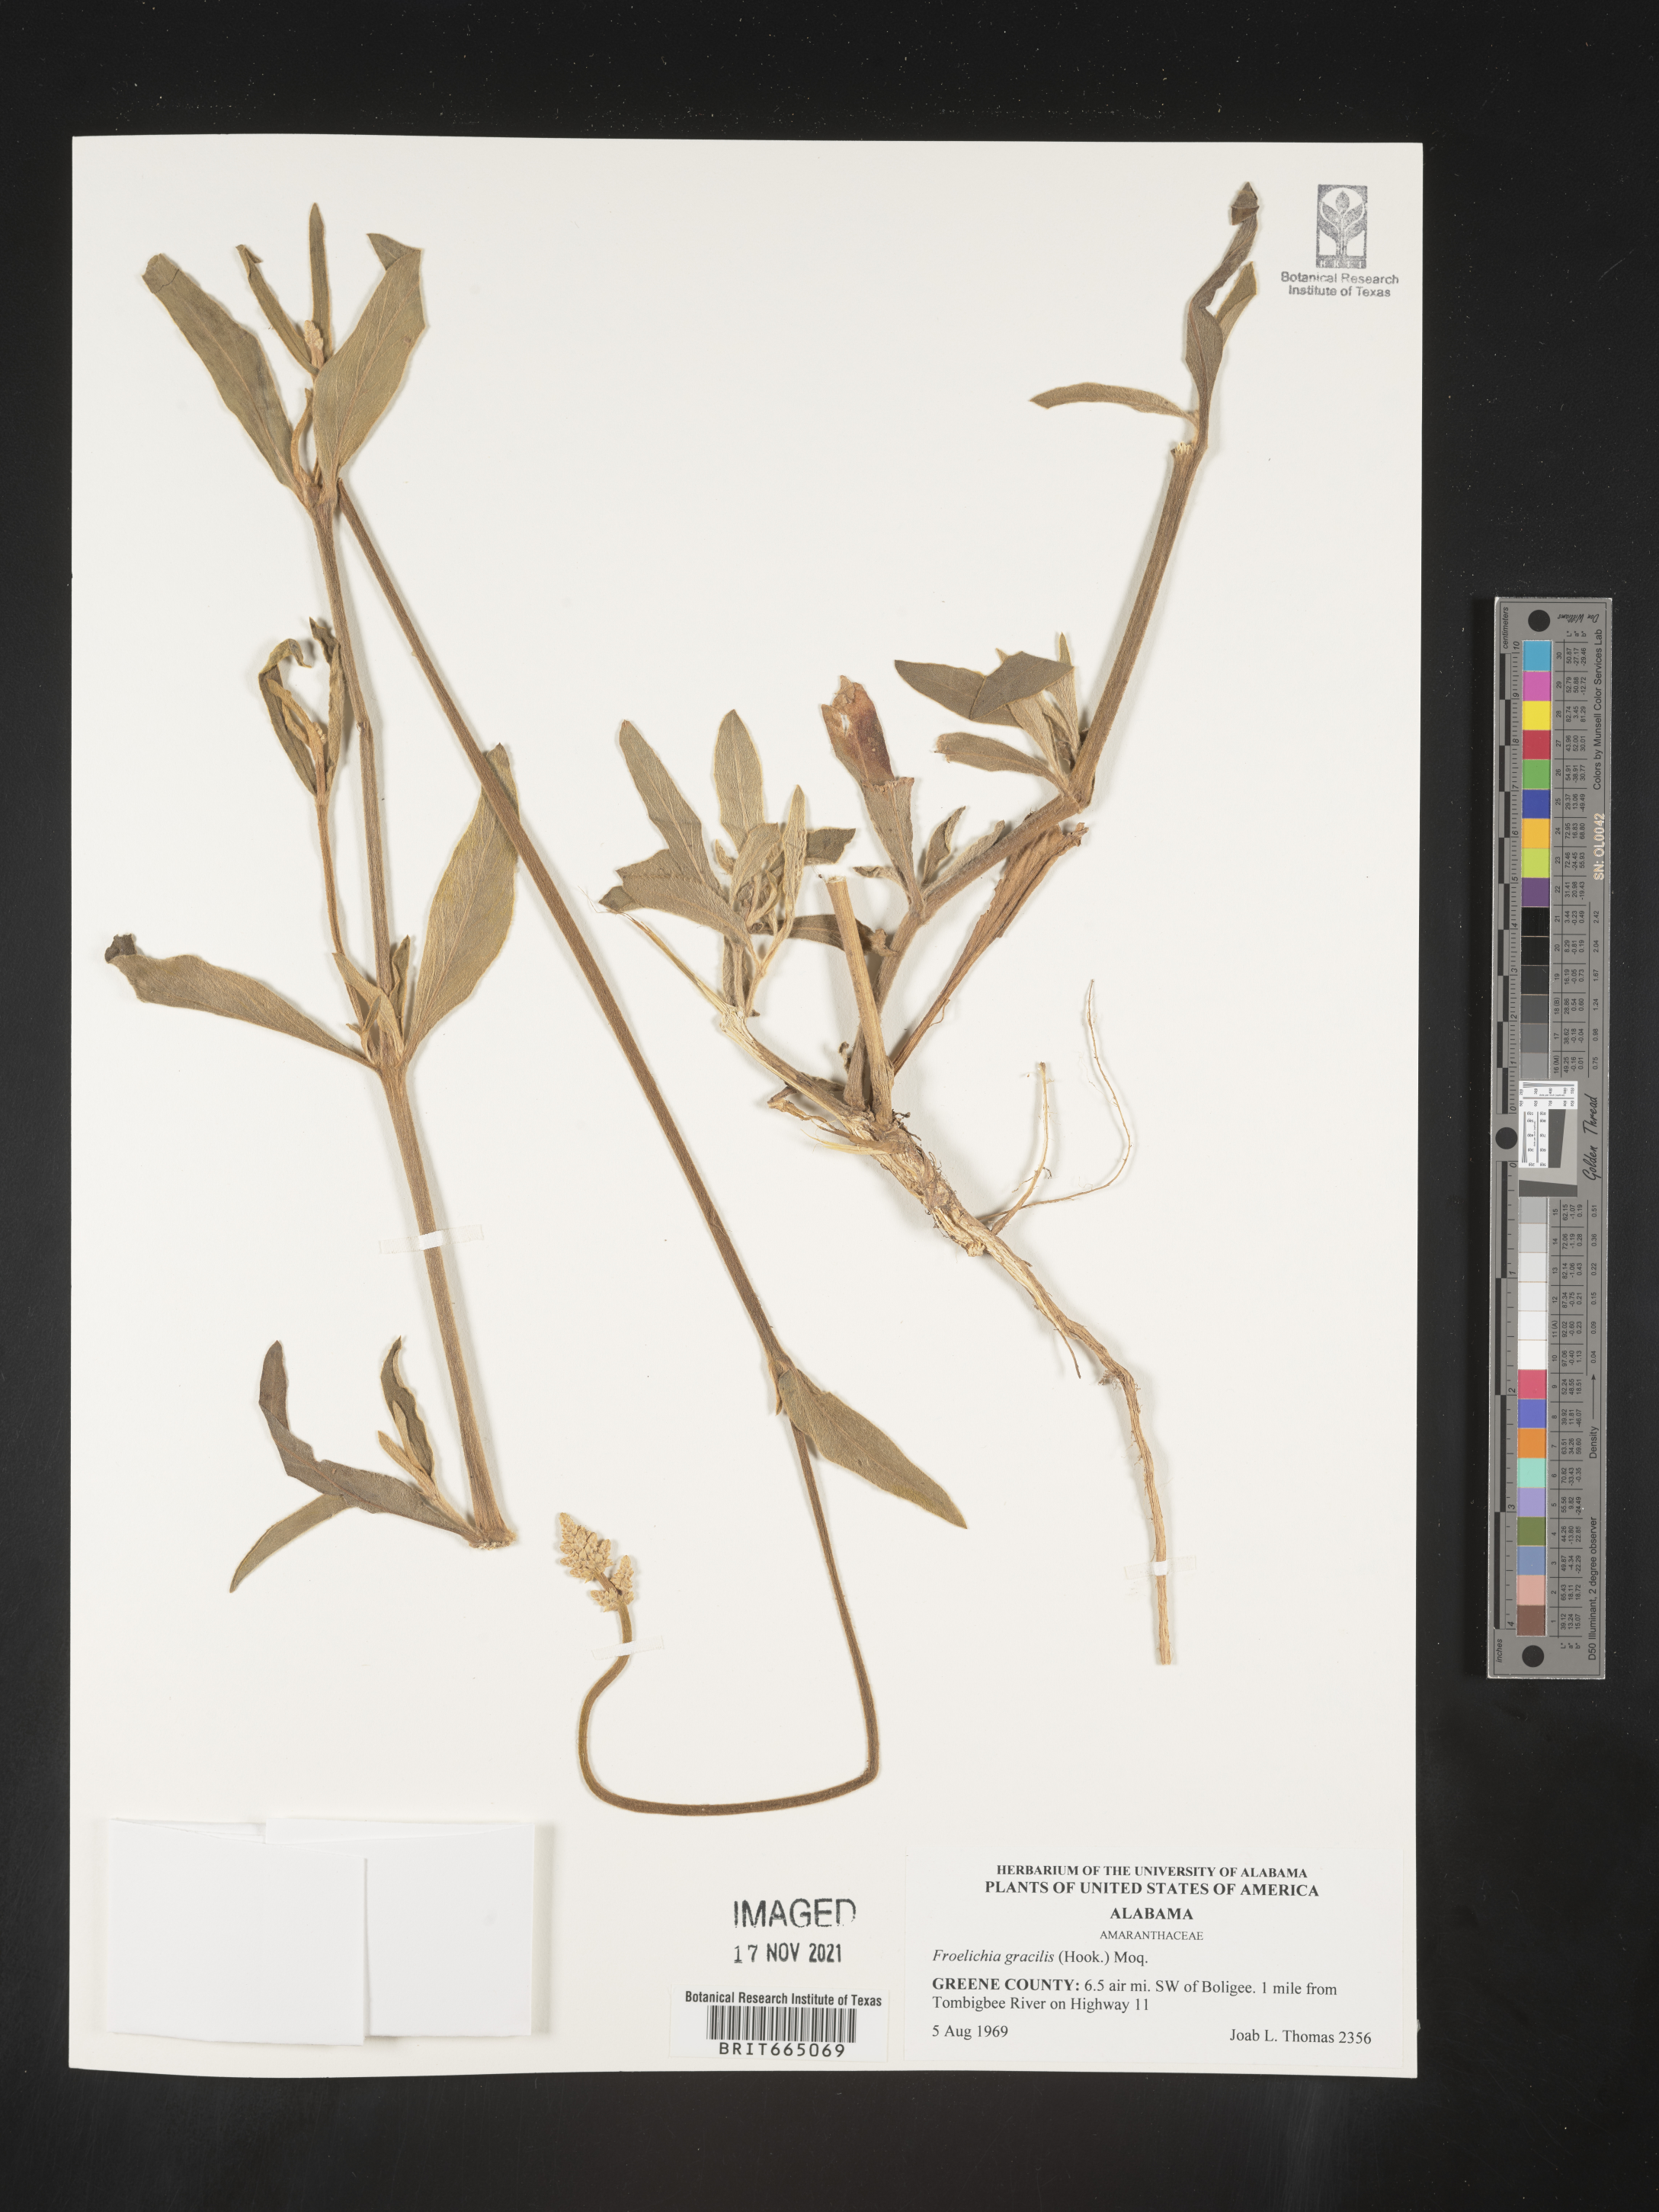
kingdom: Plantae
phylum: Tracheophyta
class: Magnoliopsida
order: Caryophyllales
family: Amaranthaceae
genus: Froelichia
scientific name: Froelichia gracilis
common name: Slender cottonweed
